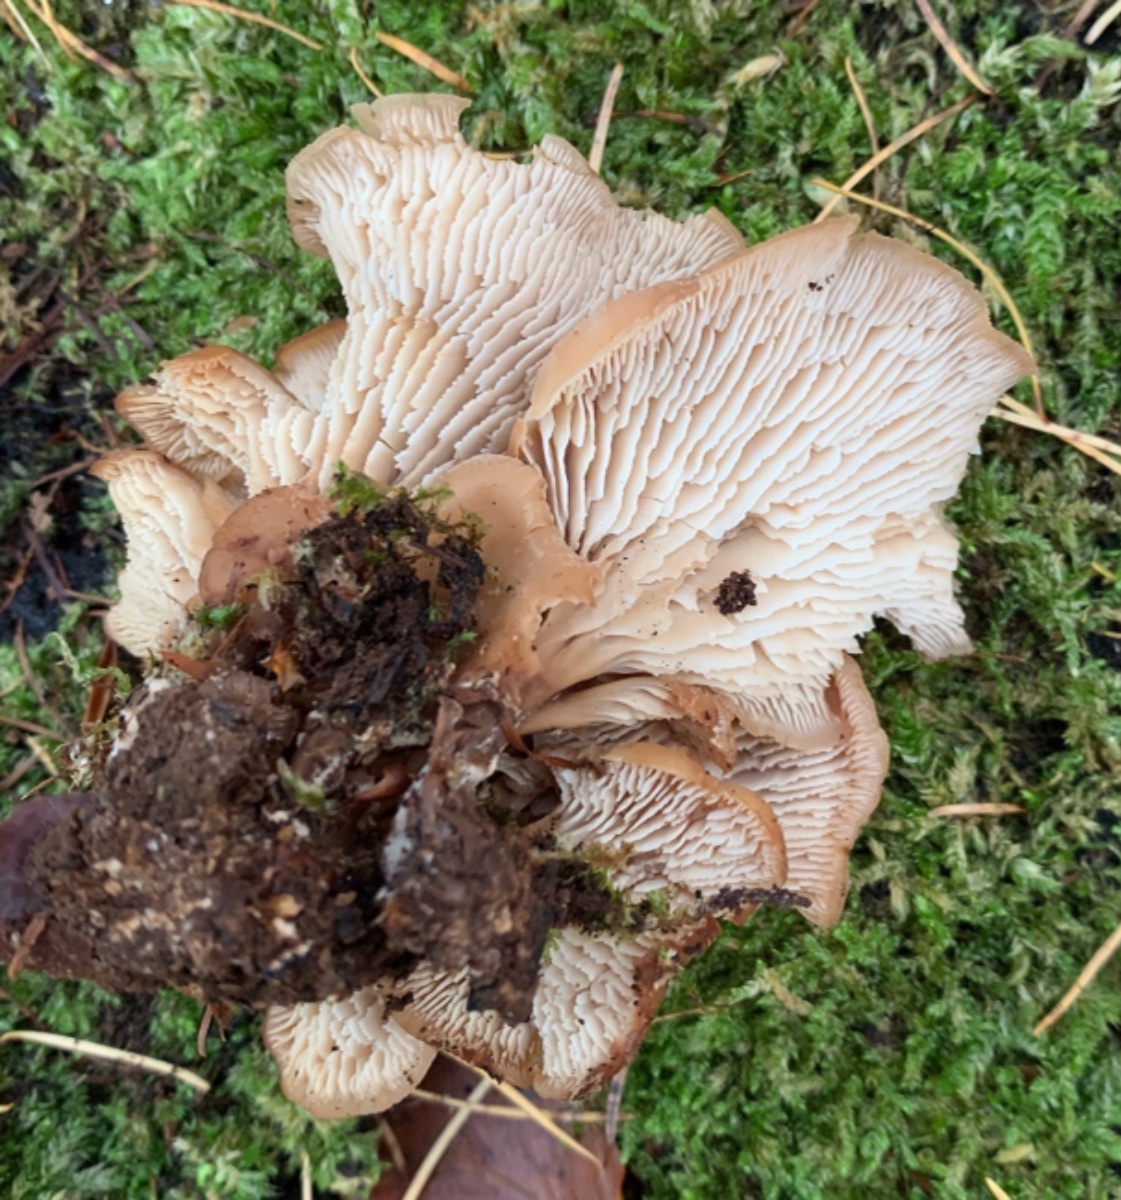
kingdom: Fungi
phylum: Basidiomycota
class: Agaricomycetes
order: Russulales
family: Auriscalpiaceae
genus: Lentinellus
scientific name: Lentinellus cochleatus
